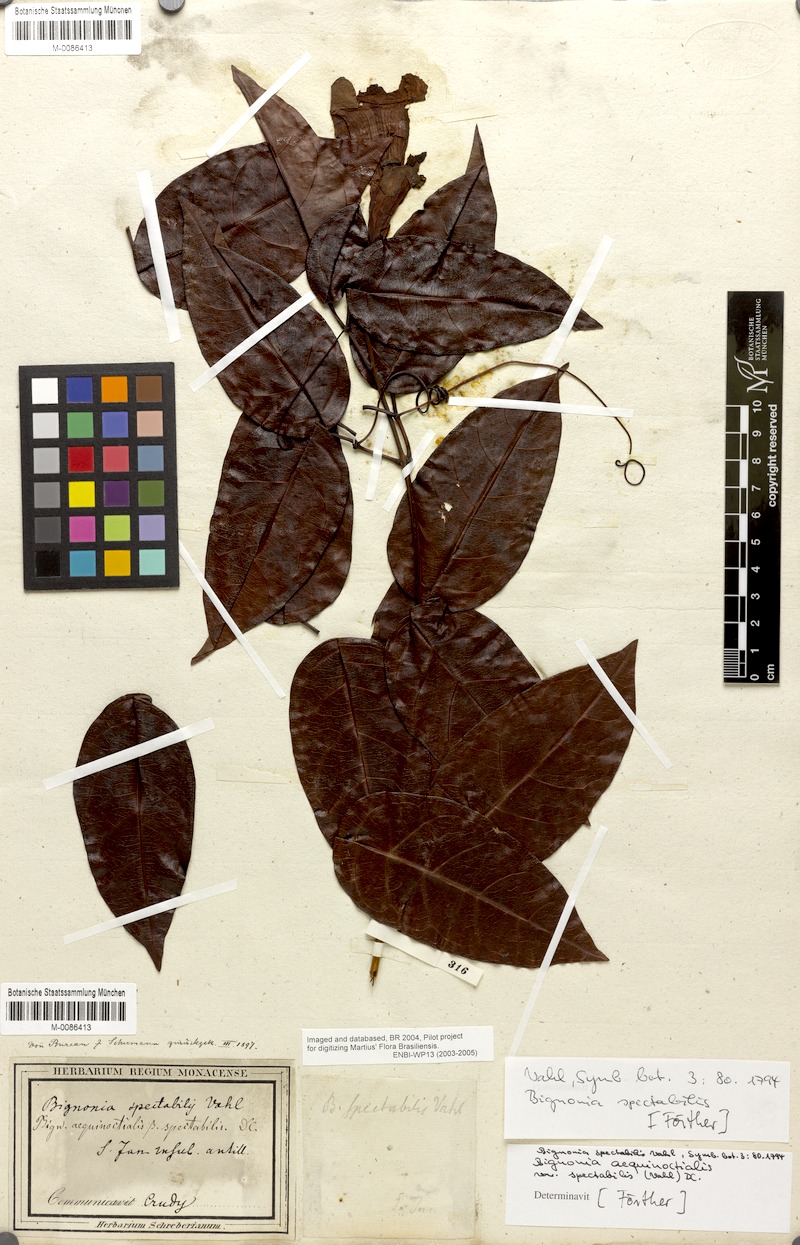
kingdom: Plantae
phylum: Tracheophyta
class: Magnoliopsida
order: Lamiales
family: Bignoniaceae
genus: Bignonia
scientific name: Bignonia aequinoctialis
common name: Garlicvine
